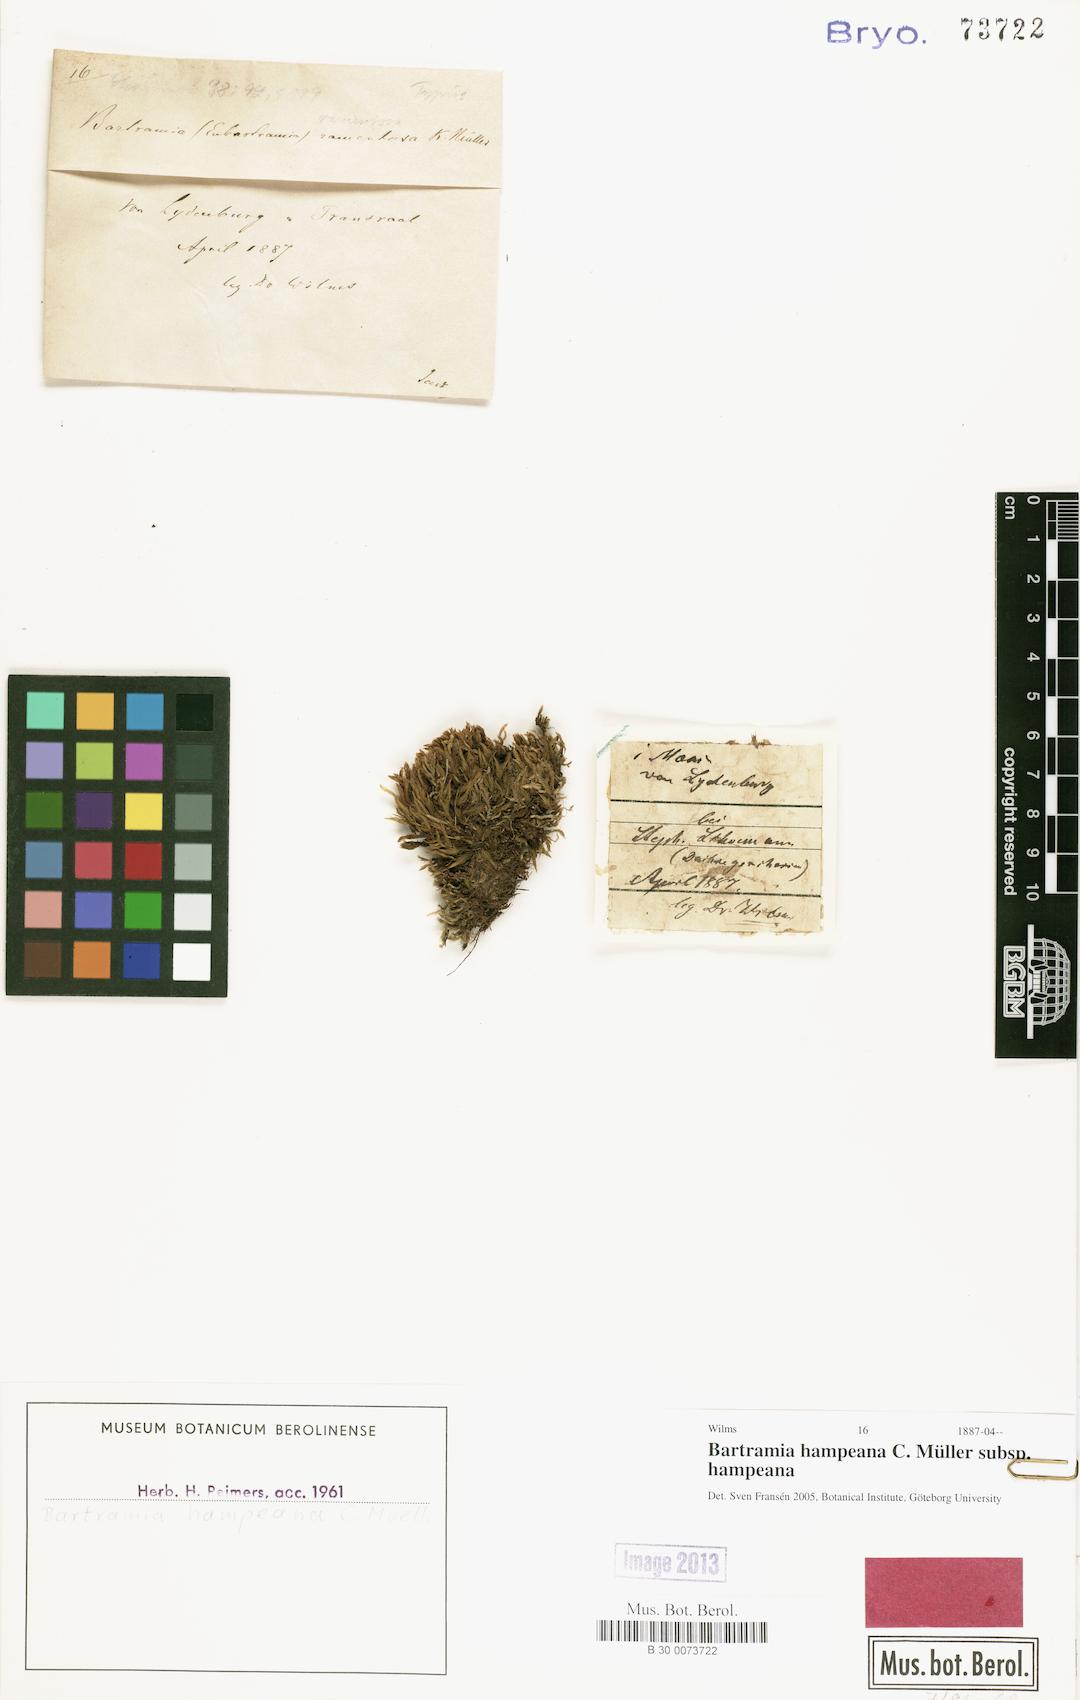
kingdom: Plantae
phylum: Bryophyta
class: Bryopsida
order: Bartramiales
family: Bartramiaceae
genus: Bartramia
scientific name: Bartramia hampeana
